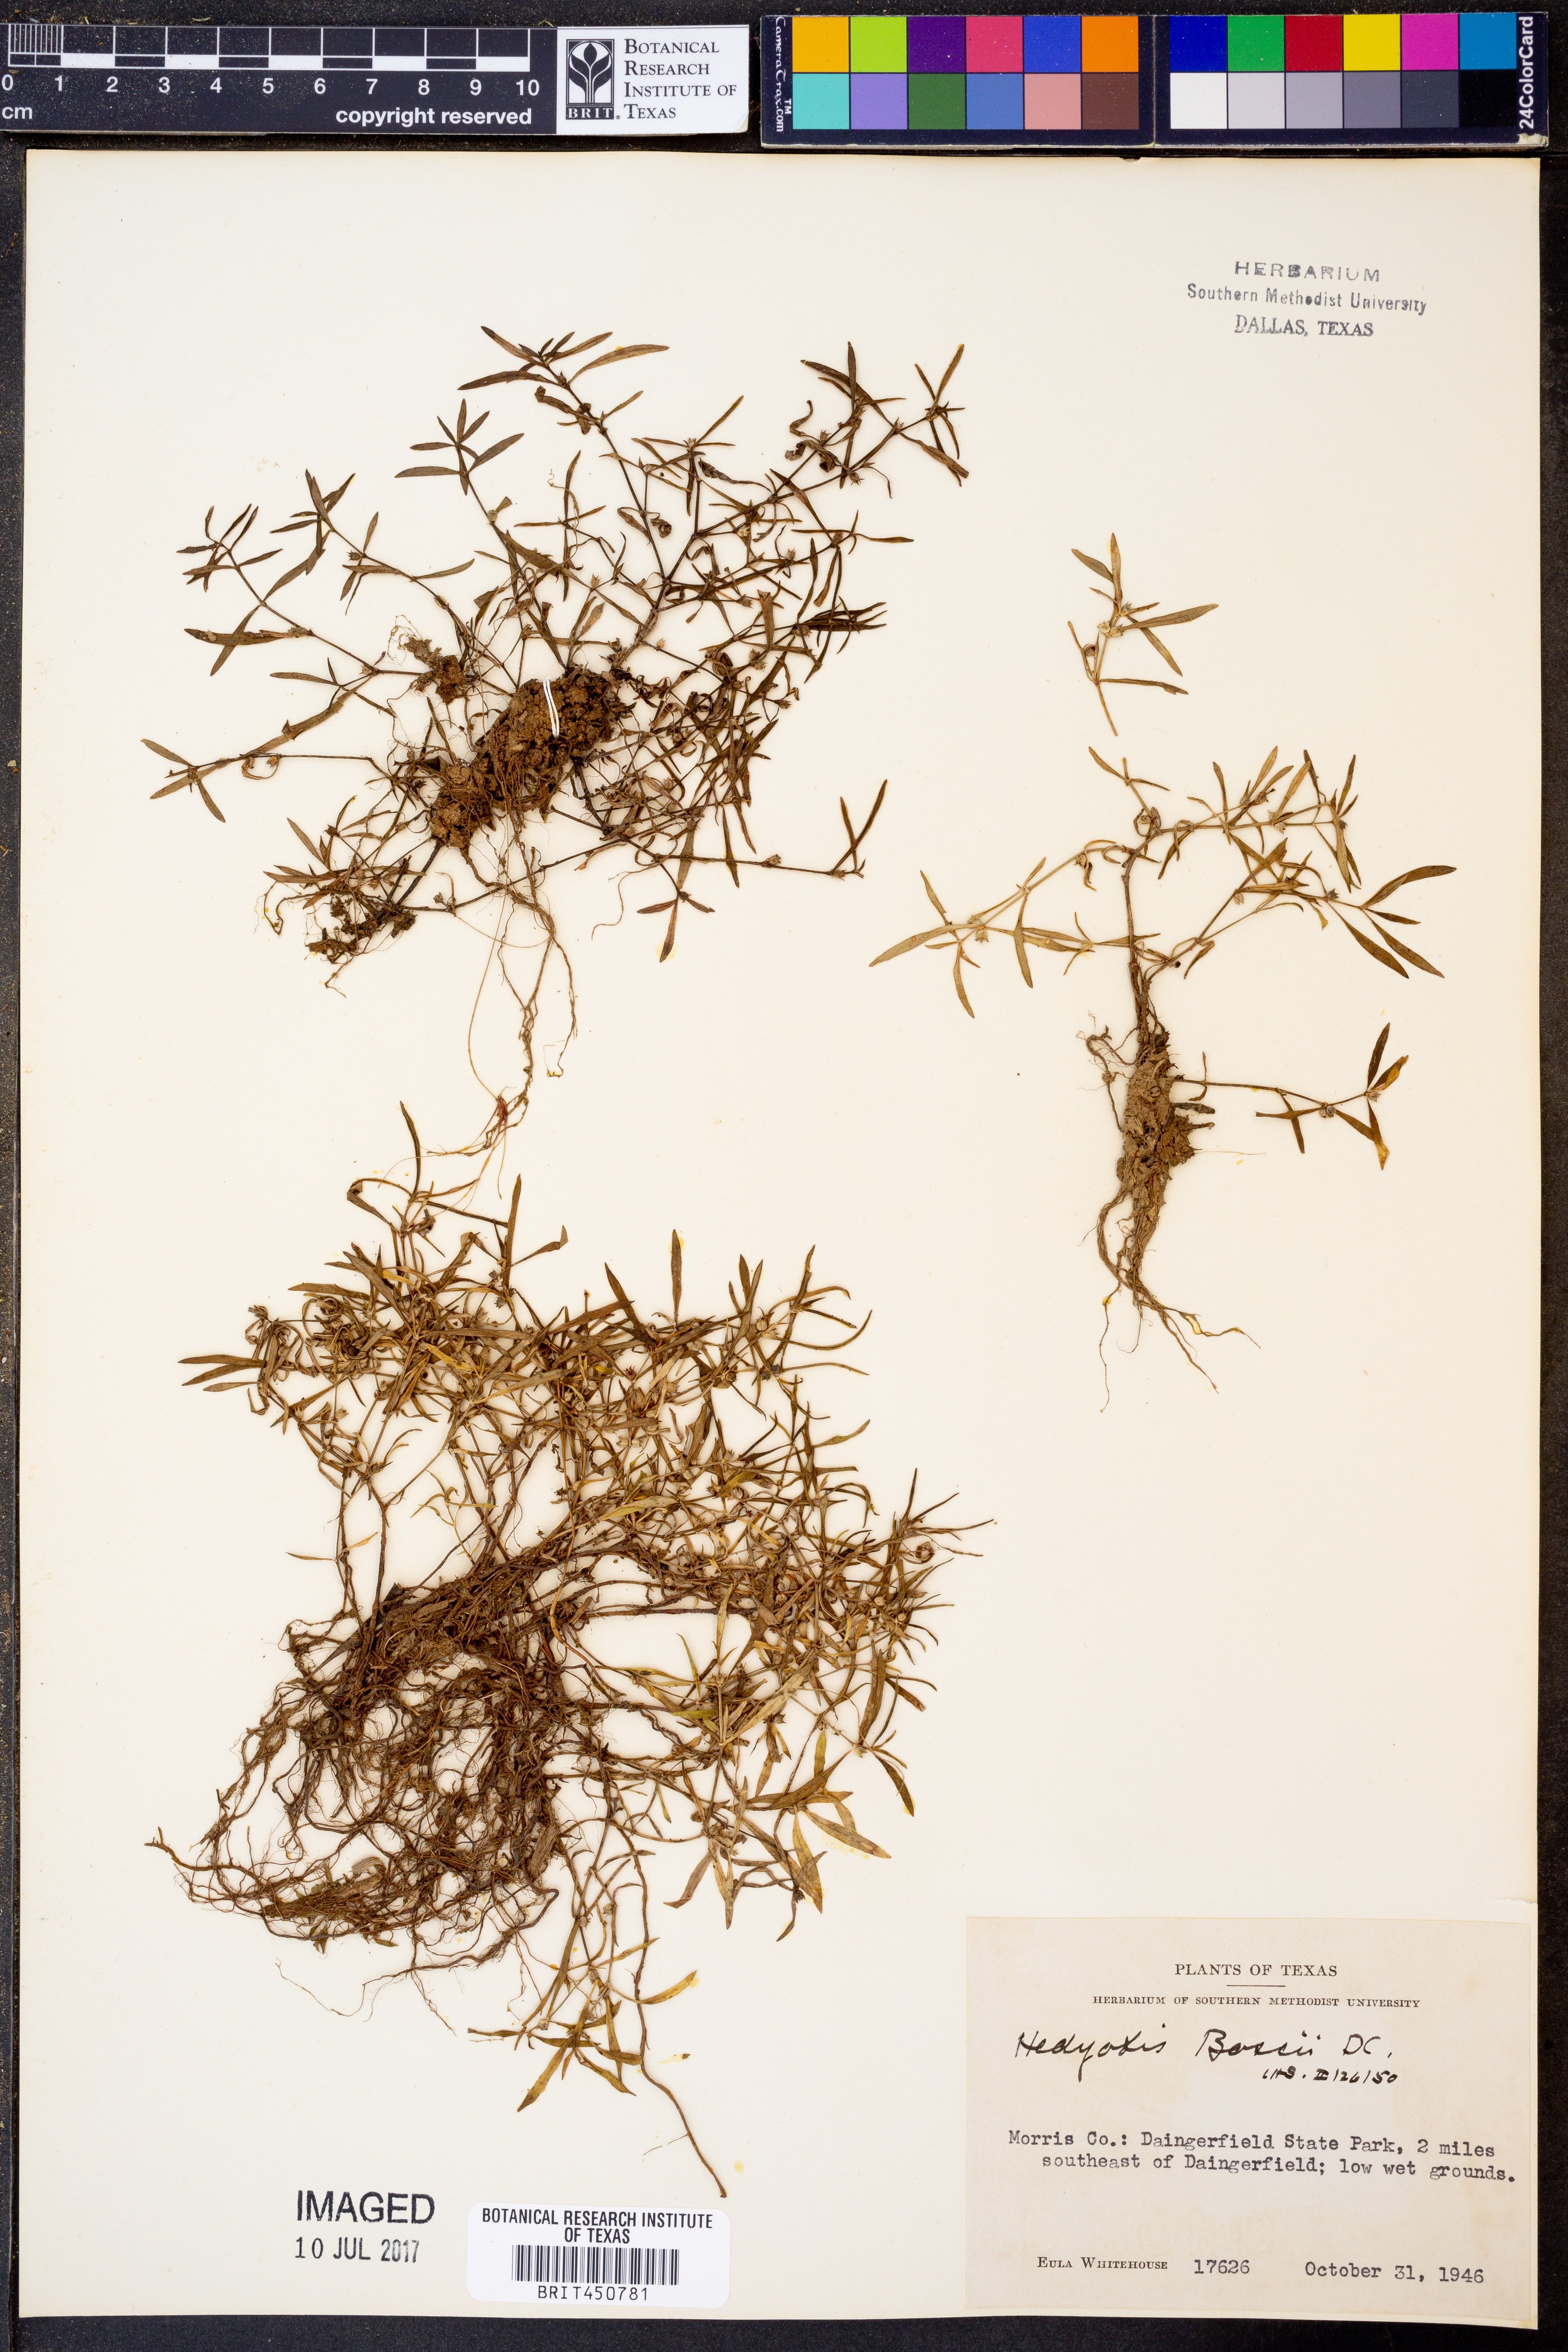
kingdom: Plantae
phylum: Tracheophyta
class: Magnoliopsida
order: Gentianales
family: Rubiaceae
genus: Oldenlandia
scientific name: Oldenlandia boscii
